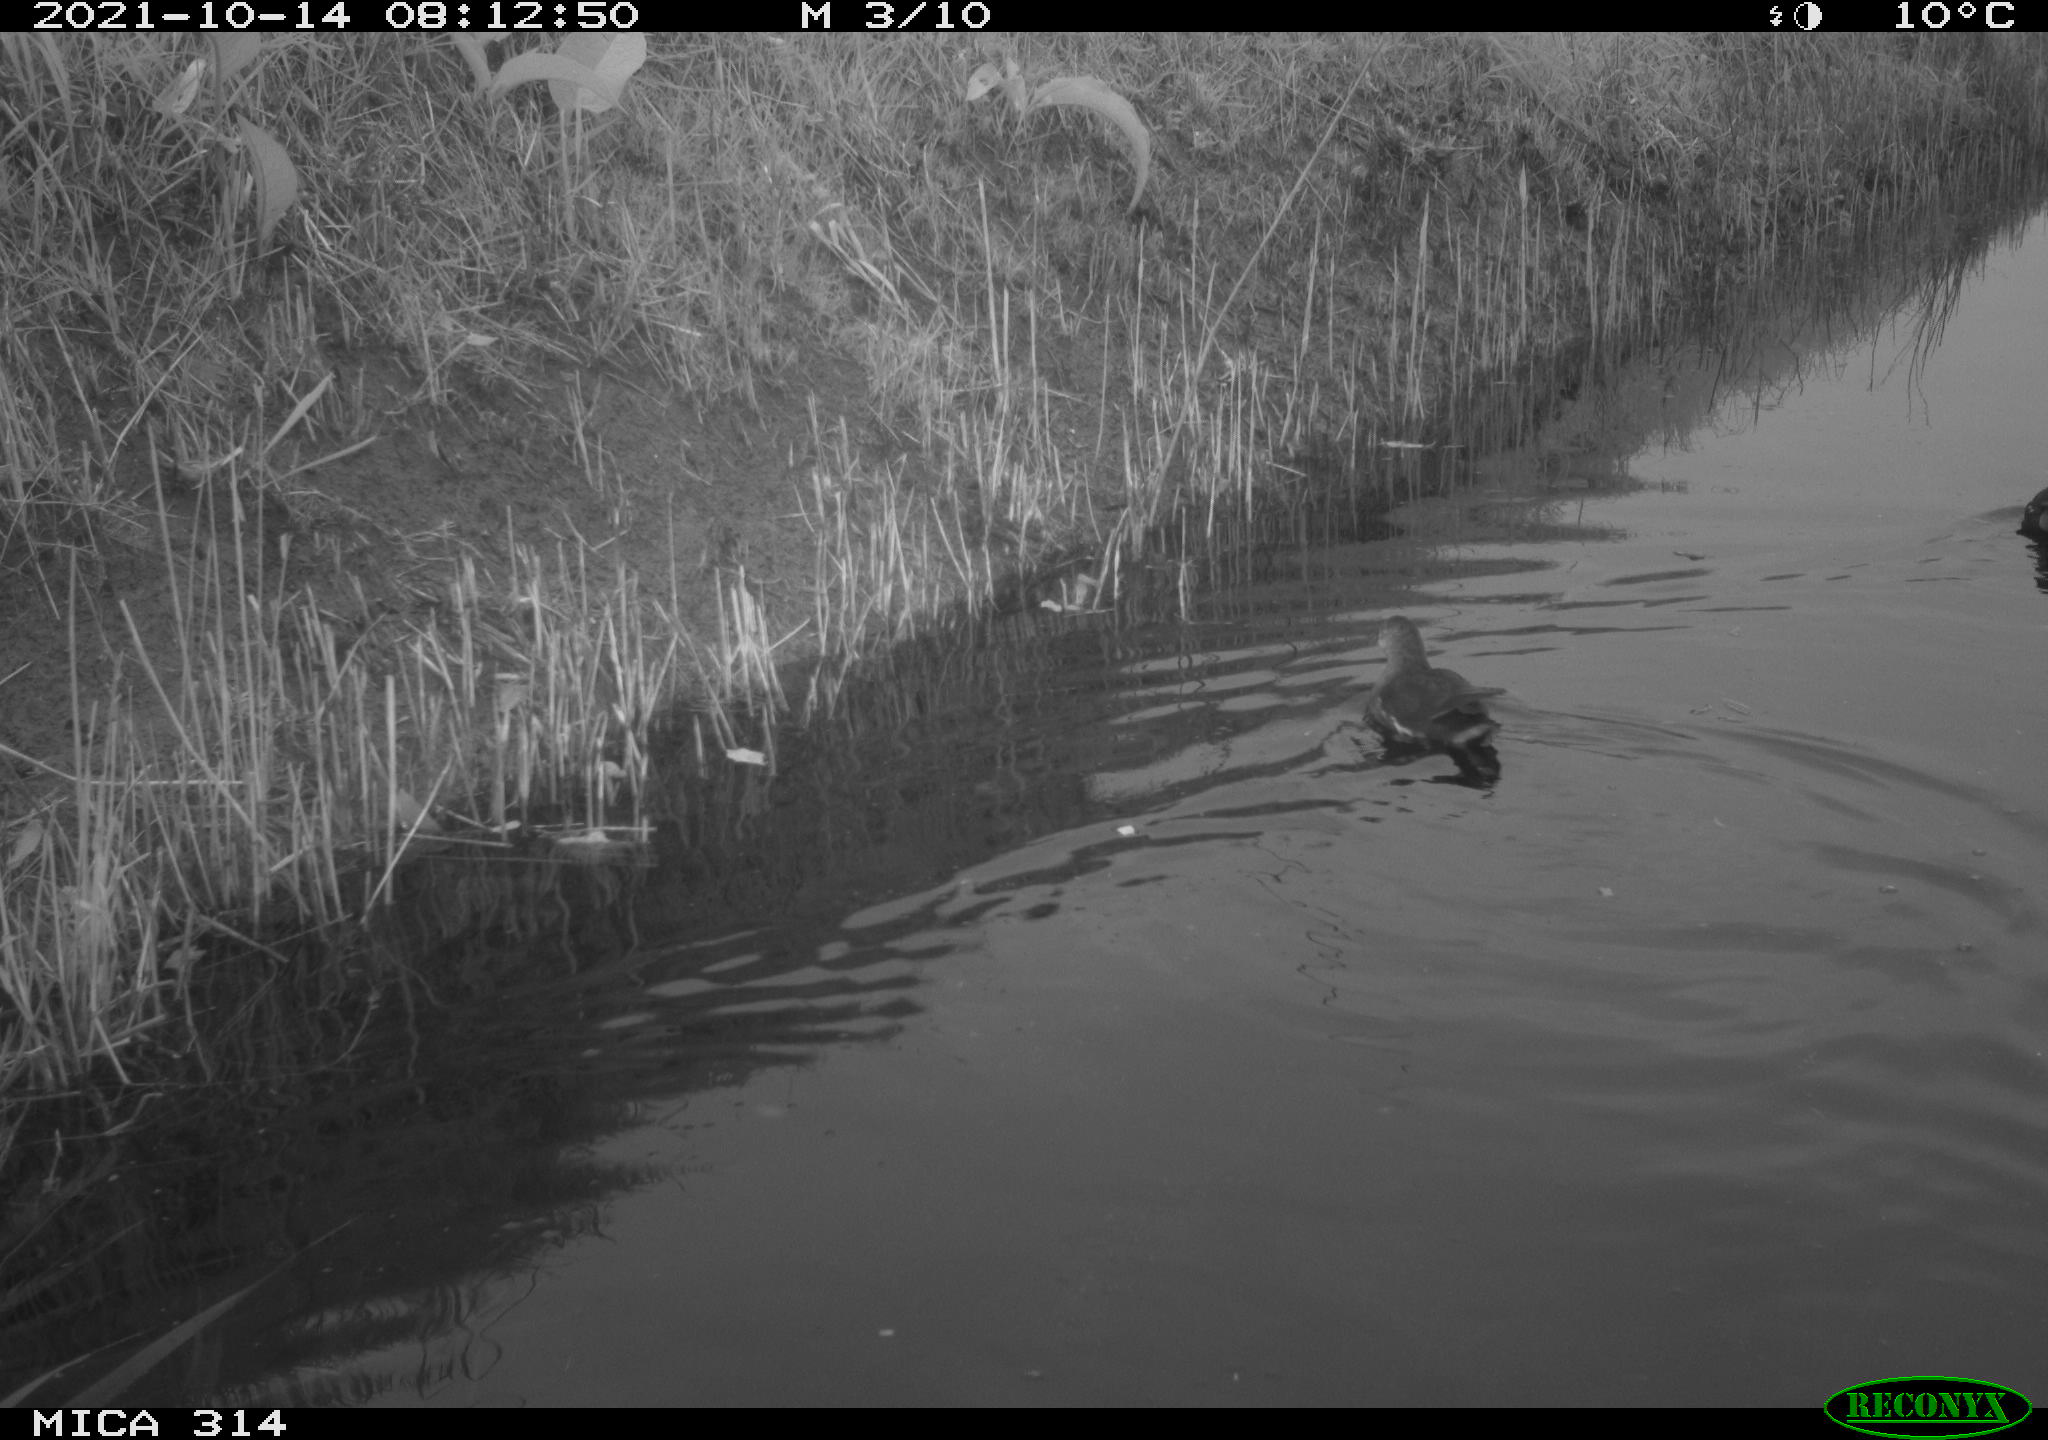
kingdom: Animalia
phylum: Chordata
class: Aves
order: Gruiformes
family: Rallidae
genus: Gallinula
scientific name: Gallinula chloropus
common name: Common moorhen
